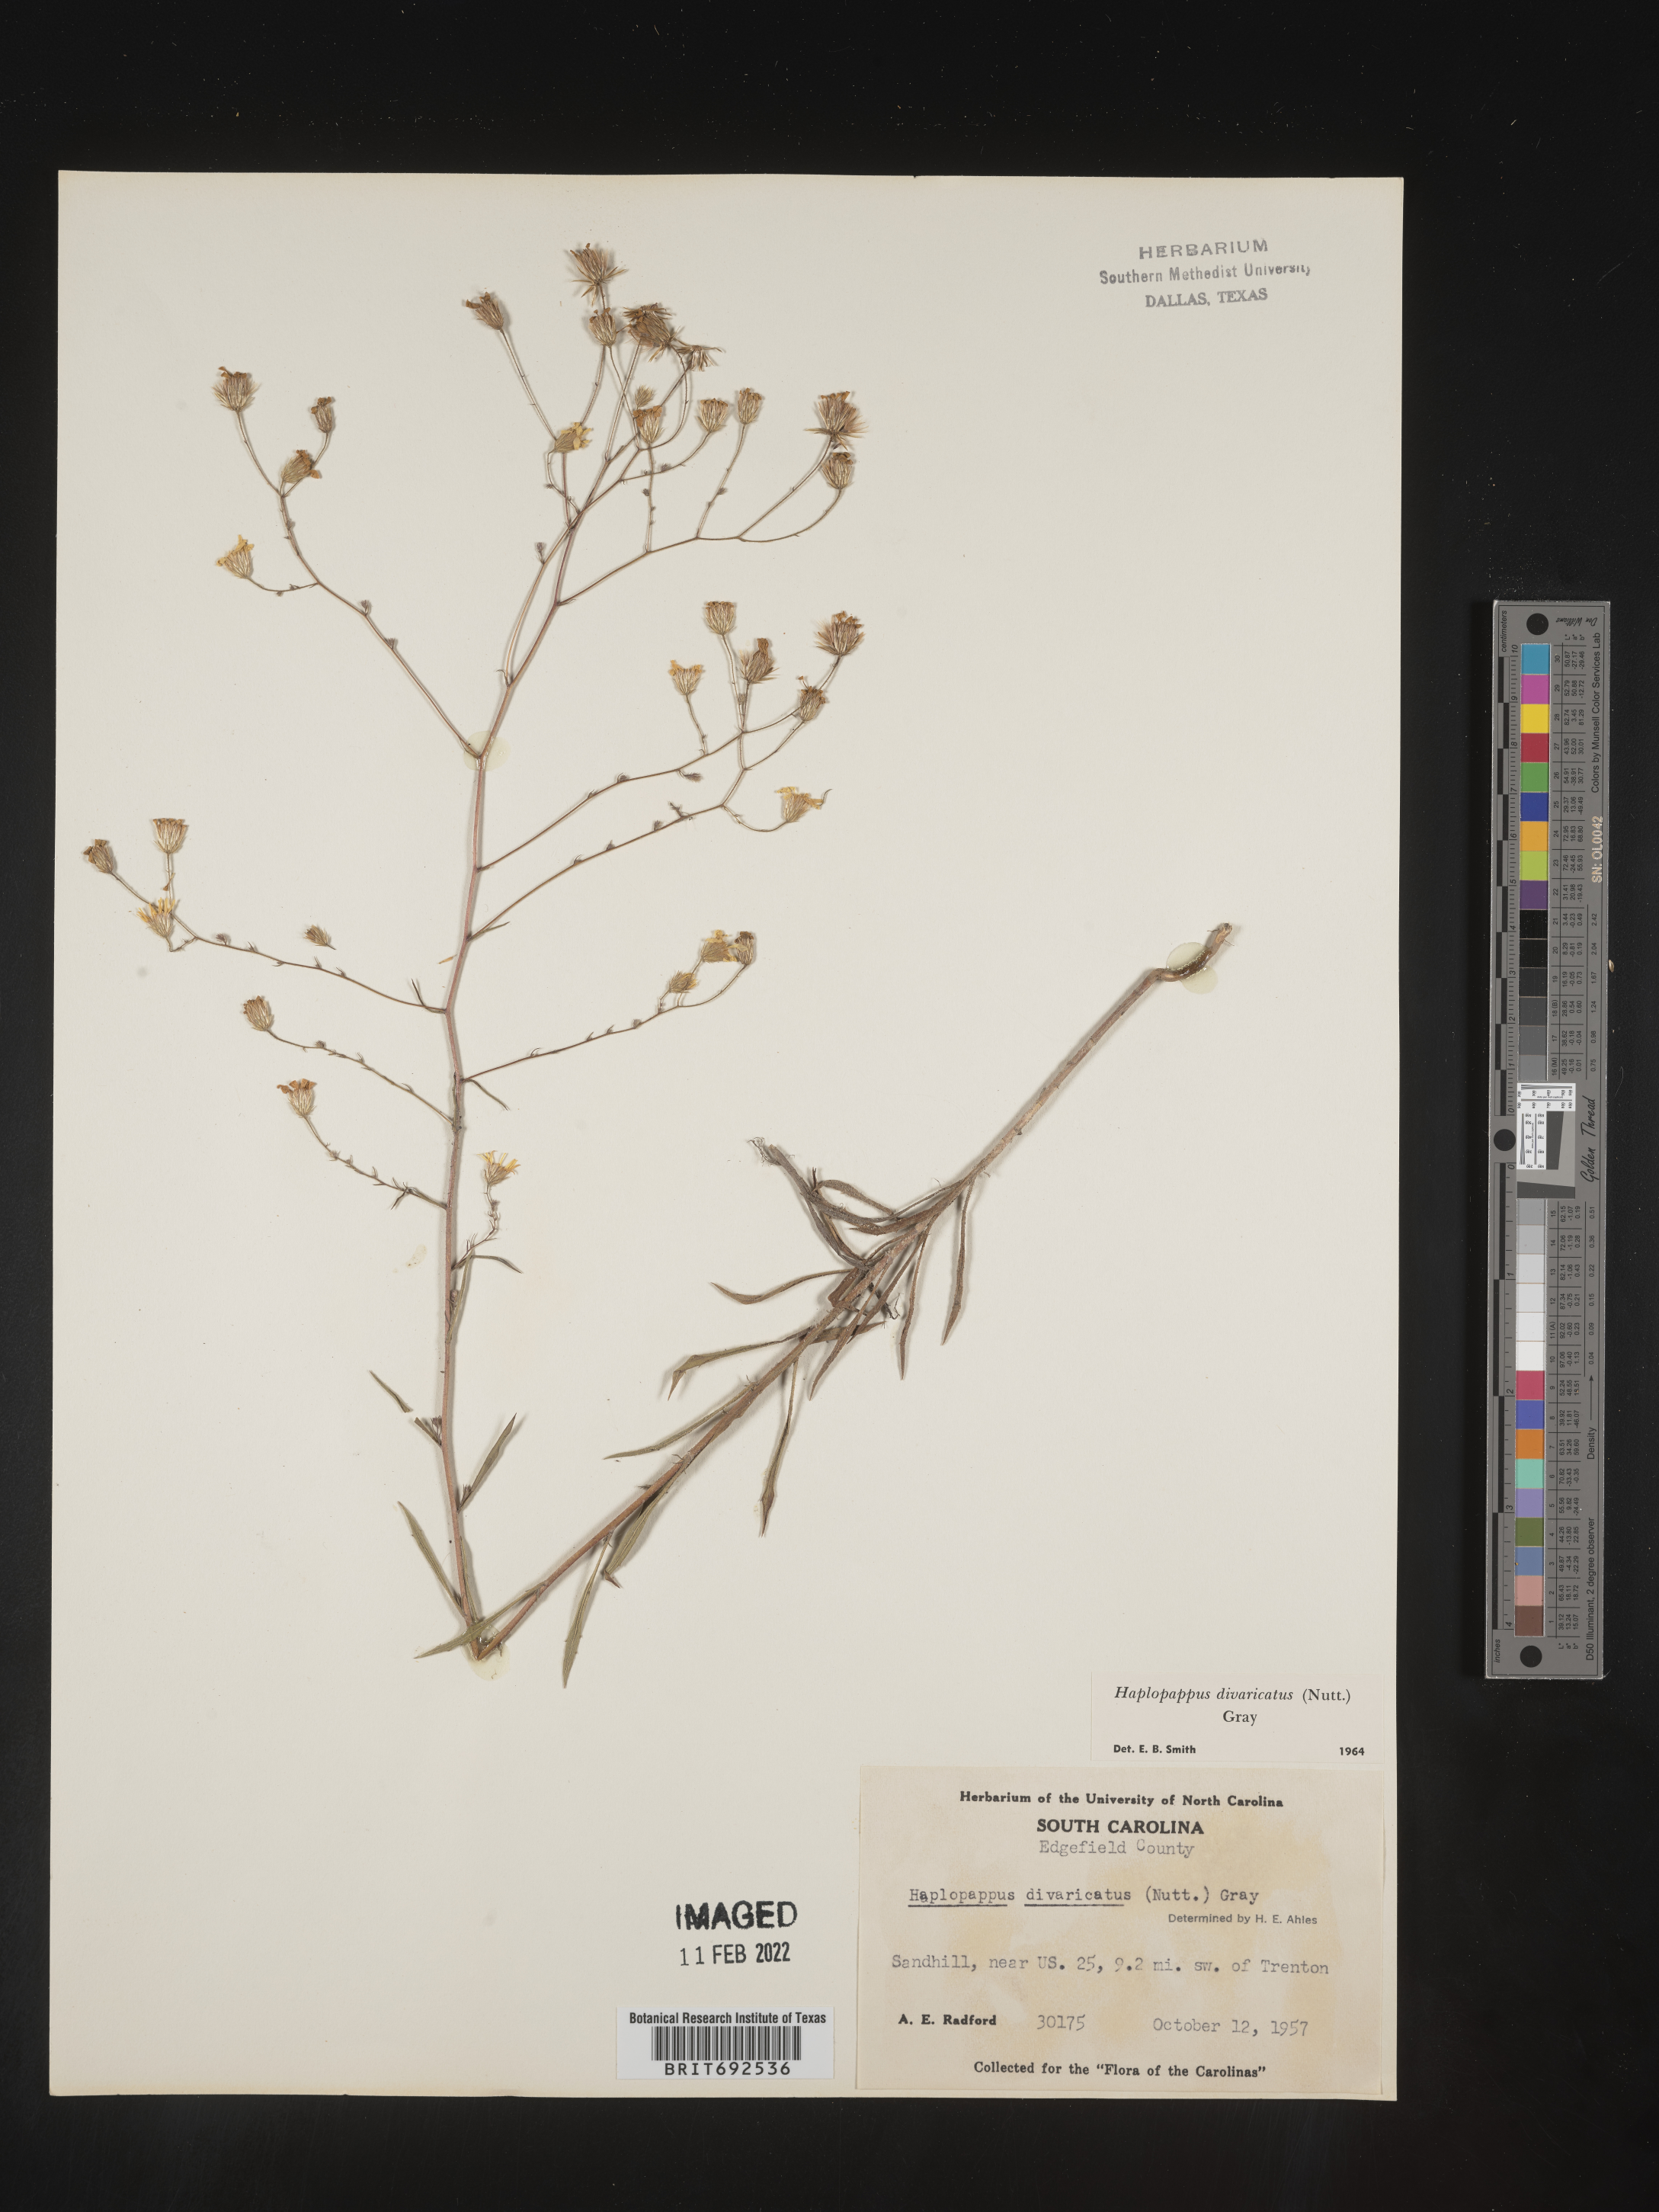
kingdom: Plantae
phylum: Tracheophyta
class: Magnoliopsida
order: Asterales
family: Asteraceae
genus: Croptilon
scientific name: Croptilon divaricatum
